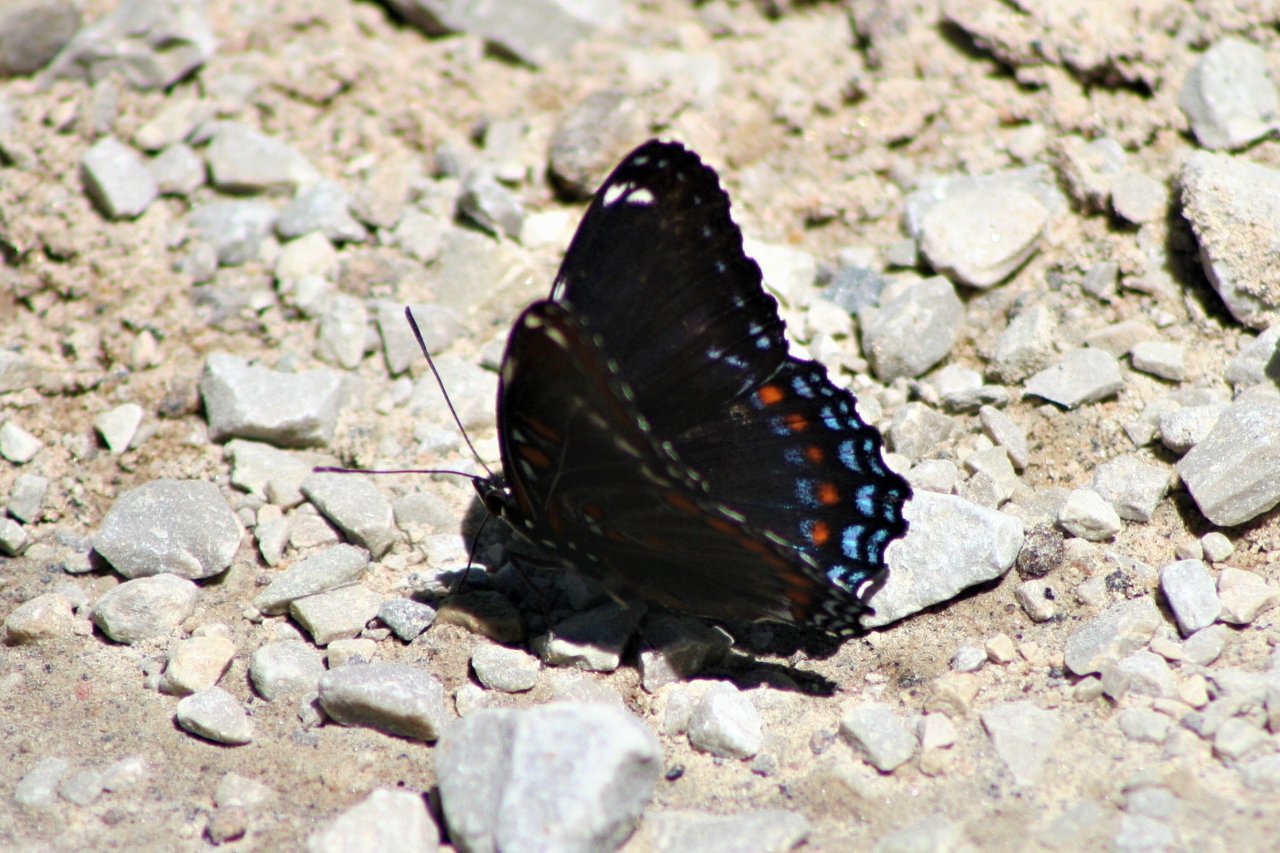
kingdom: Animalia
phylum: Arthropoda
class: Insecta
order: Lepidoptera
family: Nymphalidae
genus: Limenitis
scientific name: Limenitis astyanax
